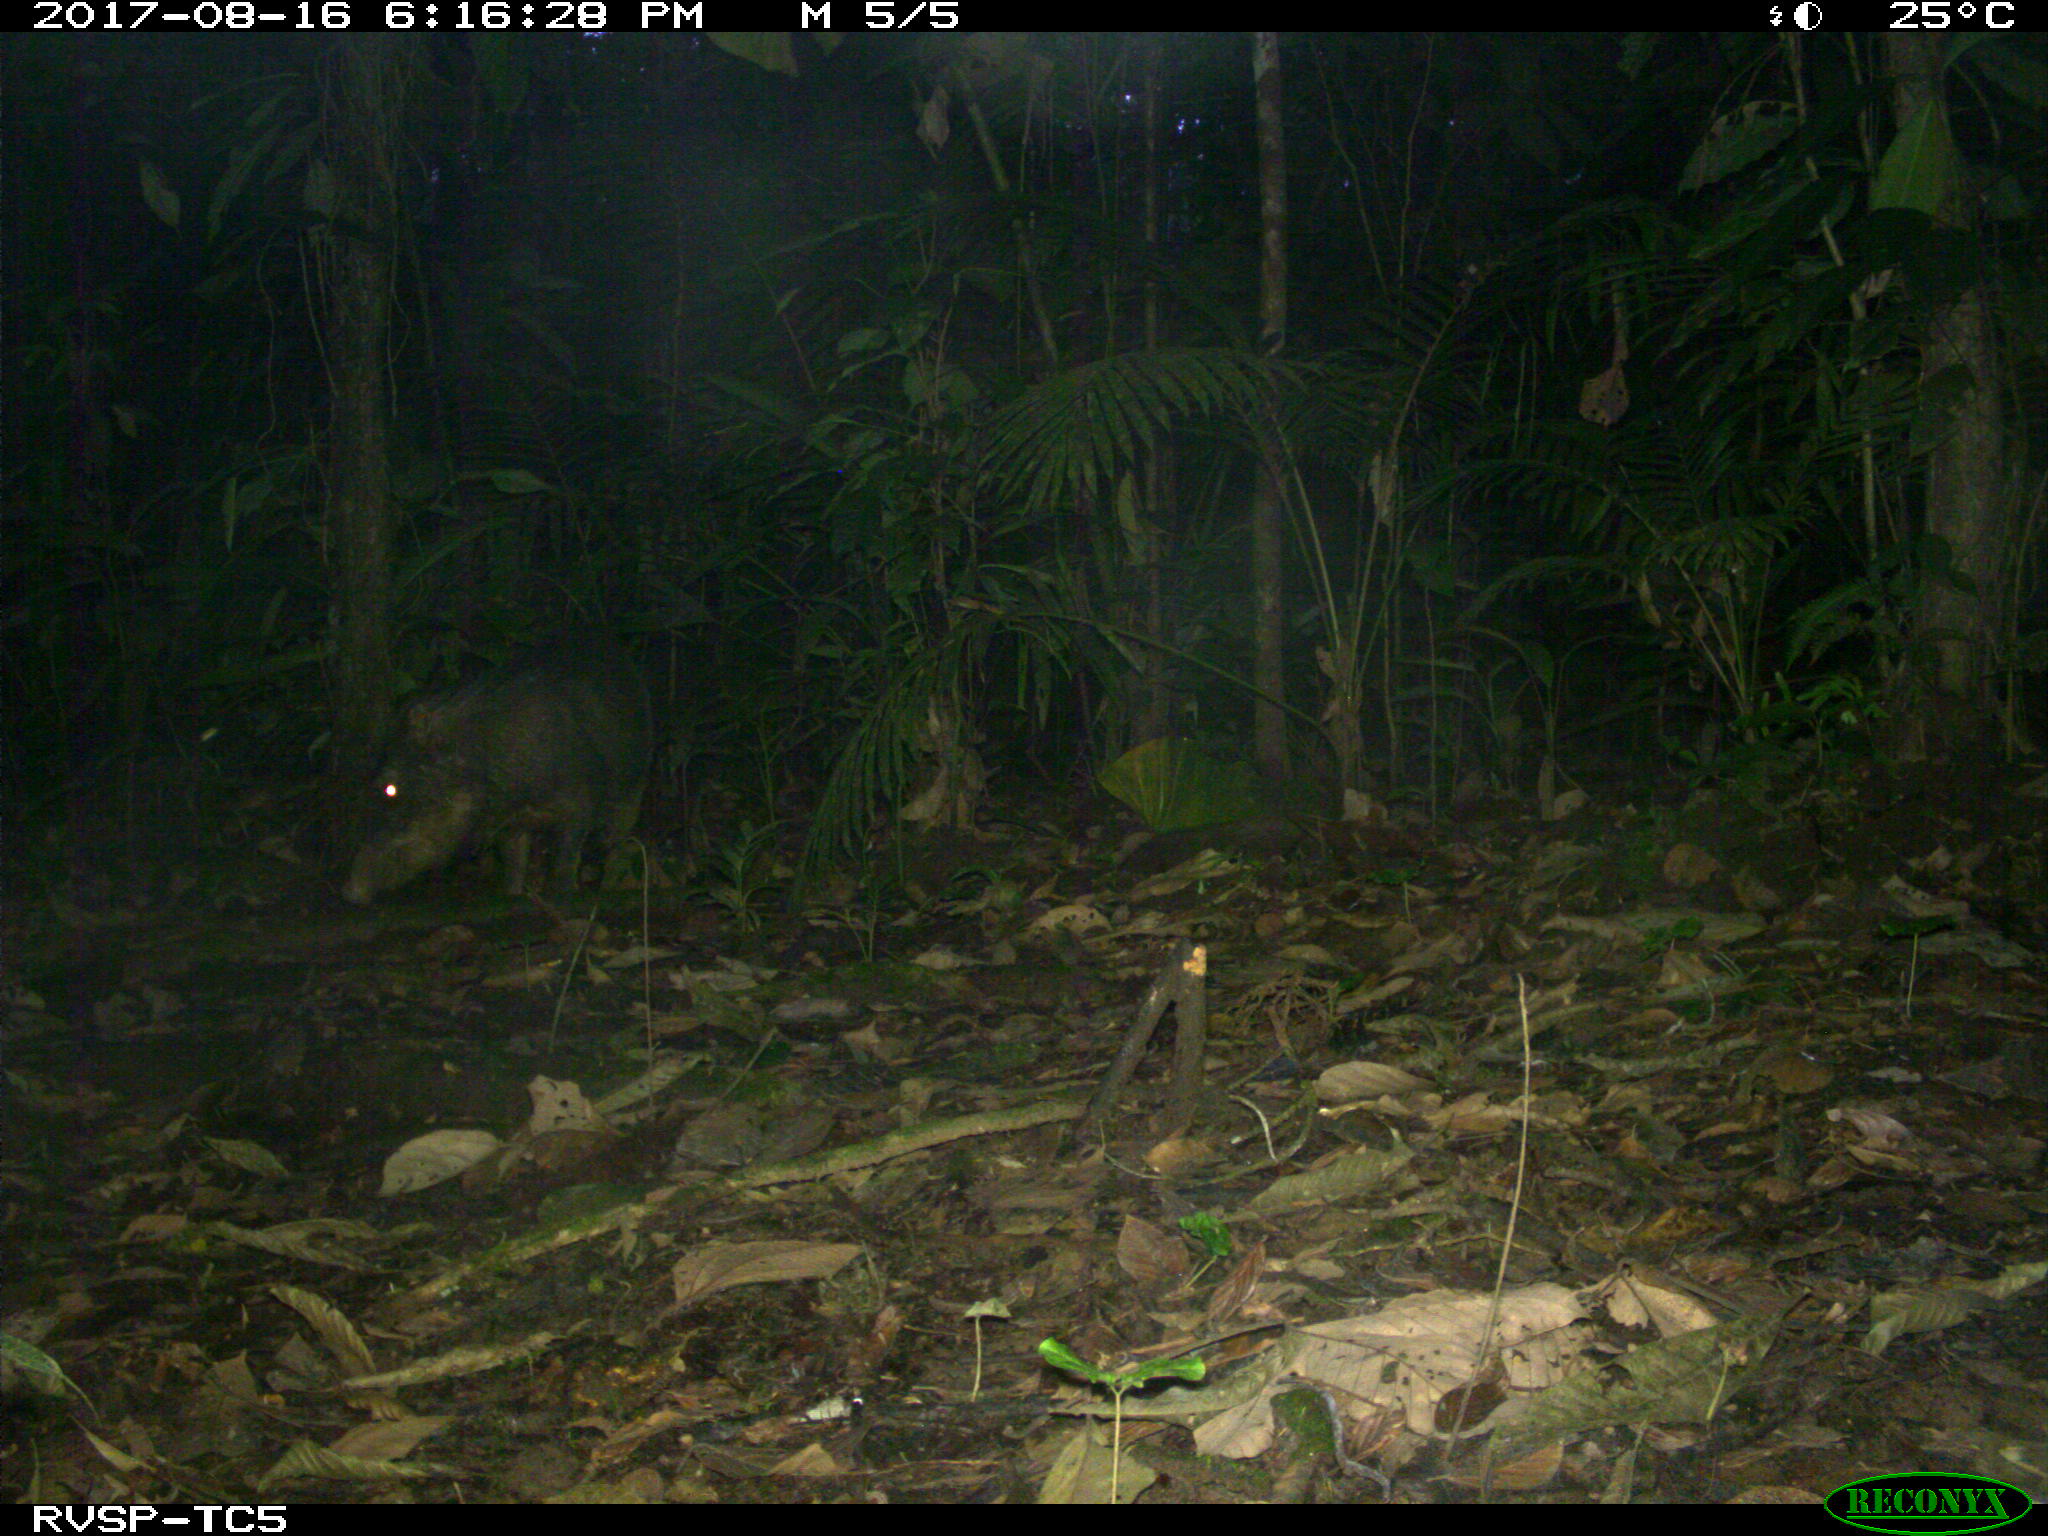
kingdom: Animalia
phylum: Chordata
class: Mammalia
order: Artiodactyla
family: Tayassuidae
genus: Tayassu
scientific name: Tayassu pecari
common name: White-lipped peccary
